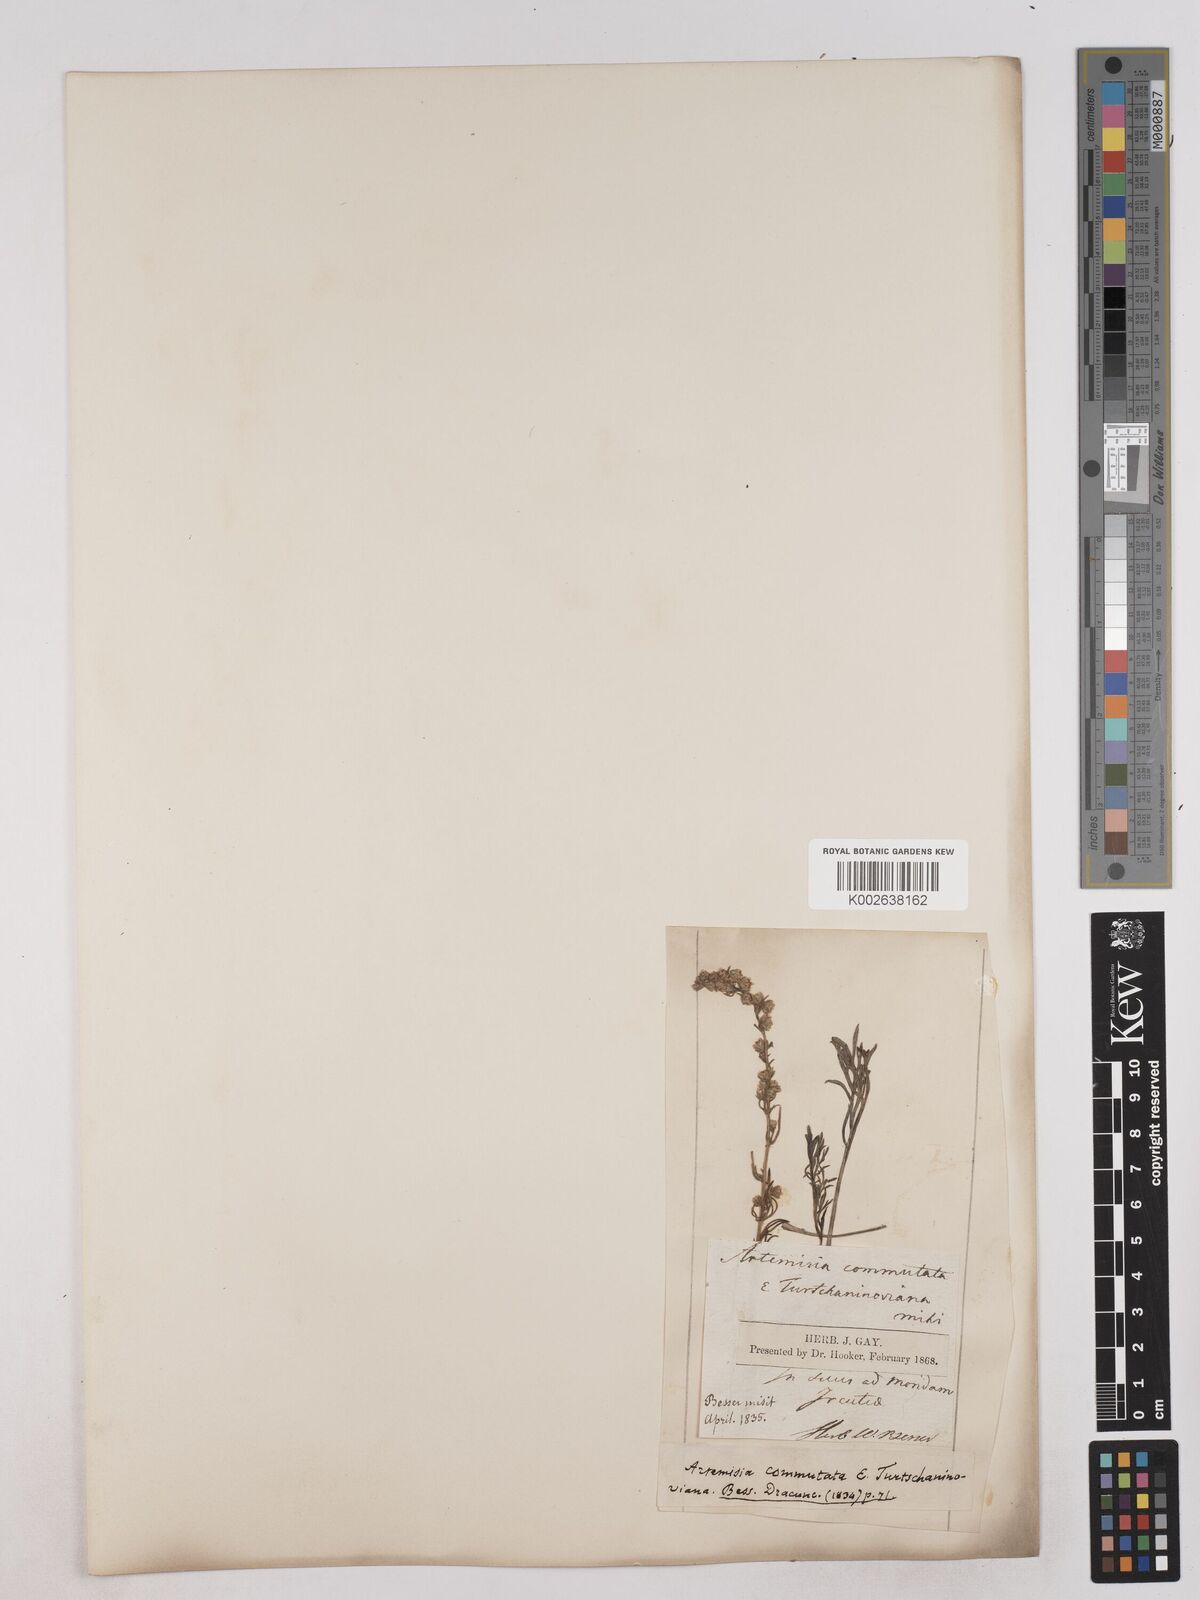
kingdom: Plantae
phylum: Tracheophyta
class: Magnoliopsida
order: Asterales
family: Asteraceae
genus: Artemisia
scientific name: Artemisia pubescens
